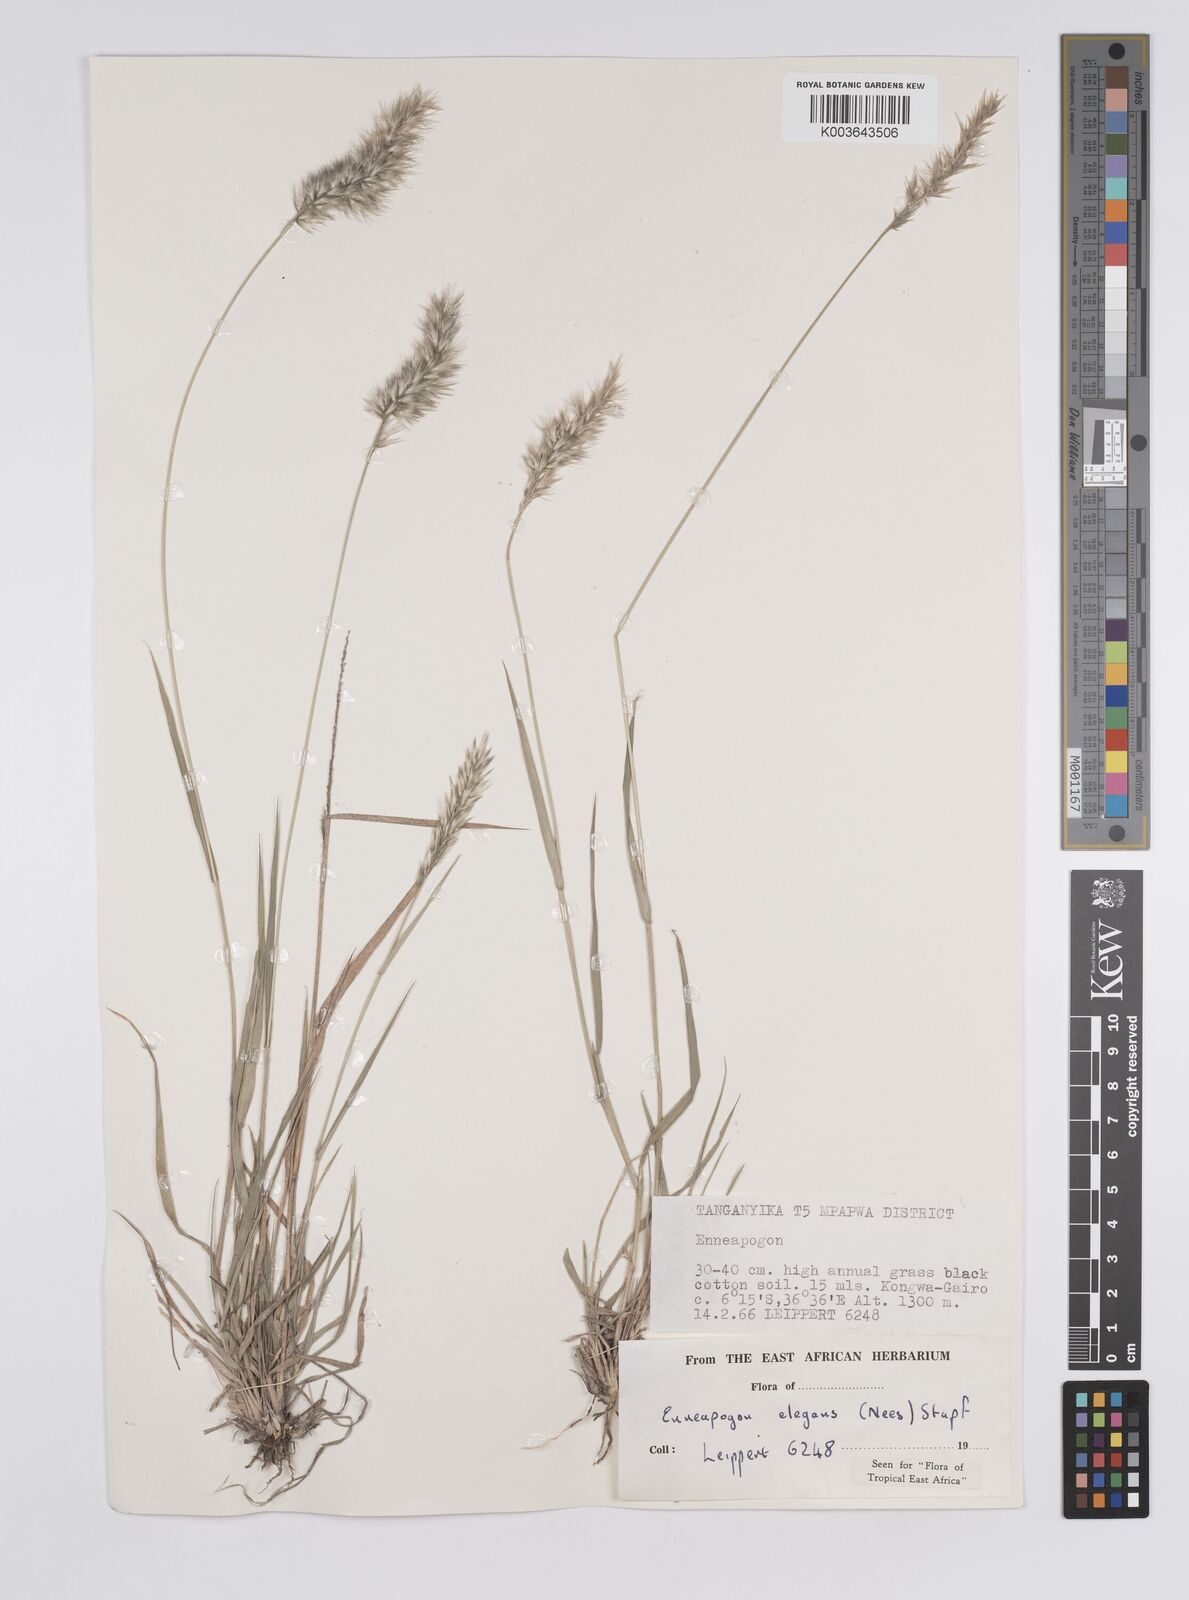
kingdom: Plantae
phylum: Tracheophyta
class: Liliopsida
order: Poales
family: Poaceae
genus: Enneapogon
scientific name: Enneapogon persicus
